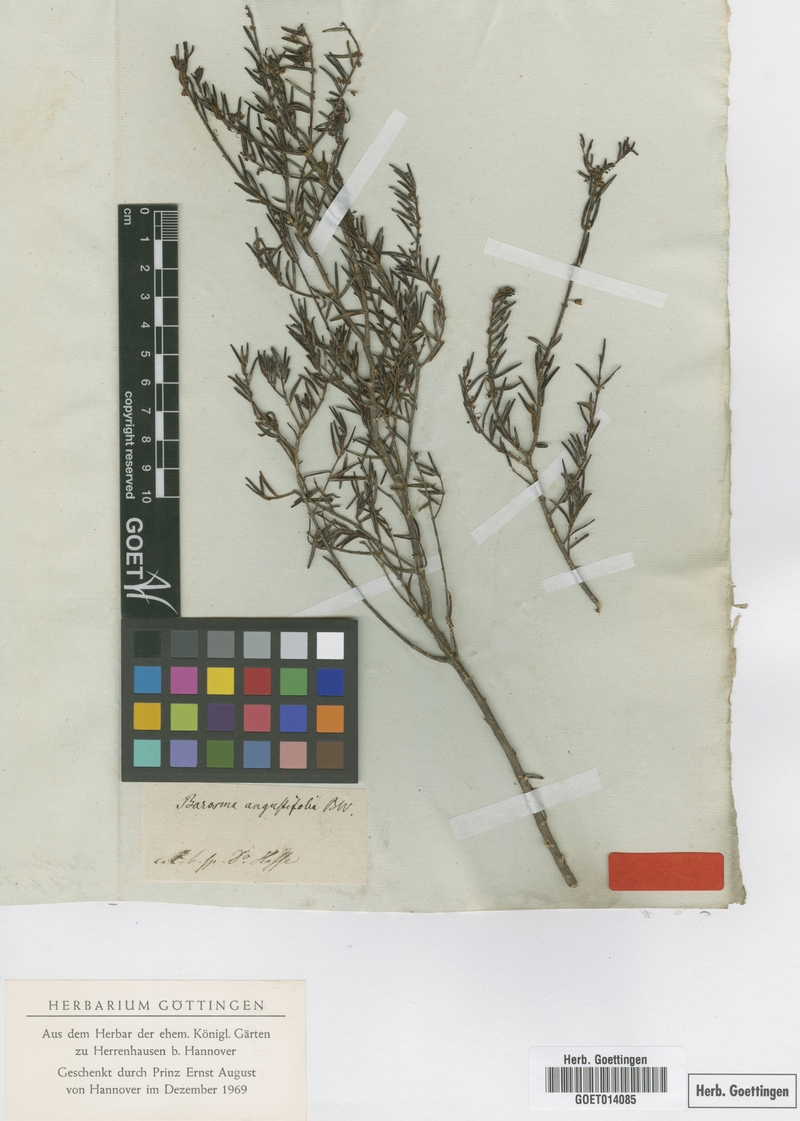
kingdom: Plantae
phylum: Tracheophyta
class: Magnoliopsida
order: Sapindales
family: Rutaceae
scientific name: Rutaceae
